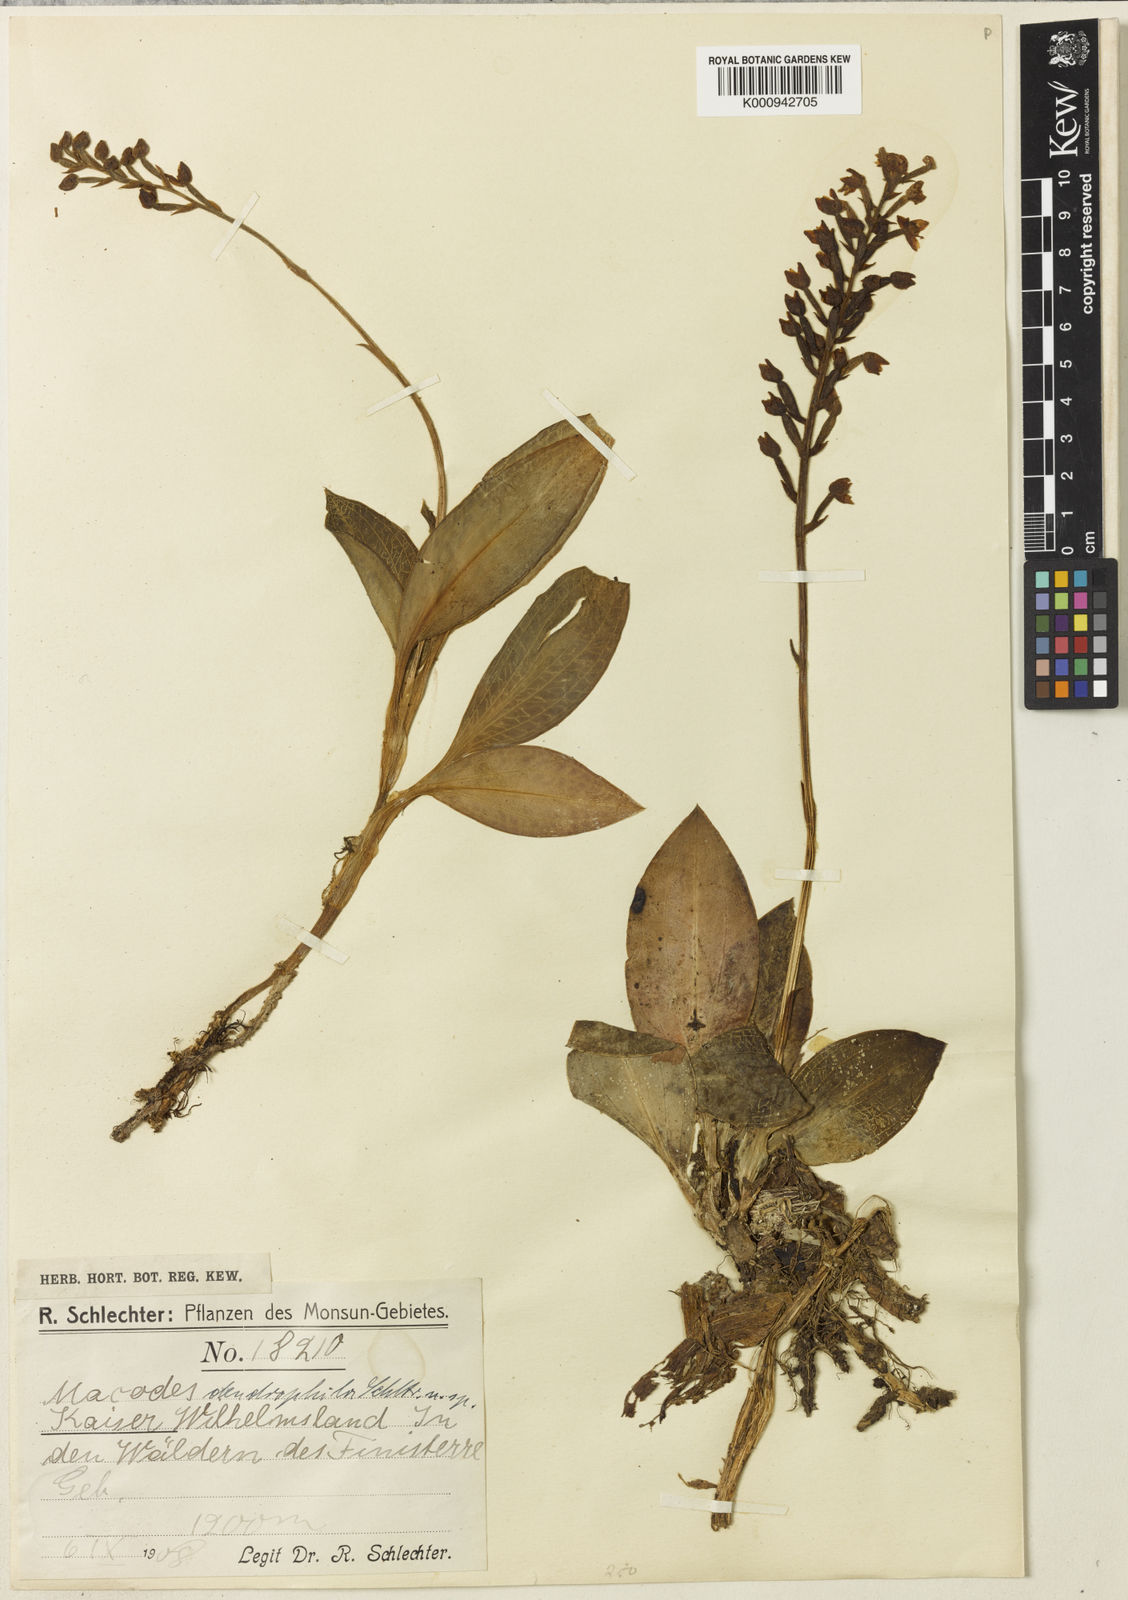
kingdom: Plantae
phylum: Tracheophyta
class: Liliopsida
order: Asparagales
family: Orchidaceae
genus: Macodes
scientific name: Macodes dendrophila
